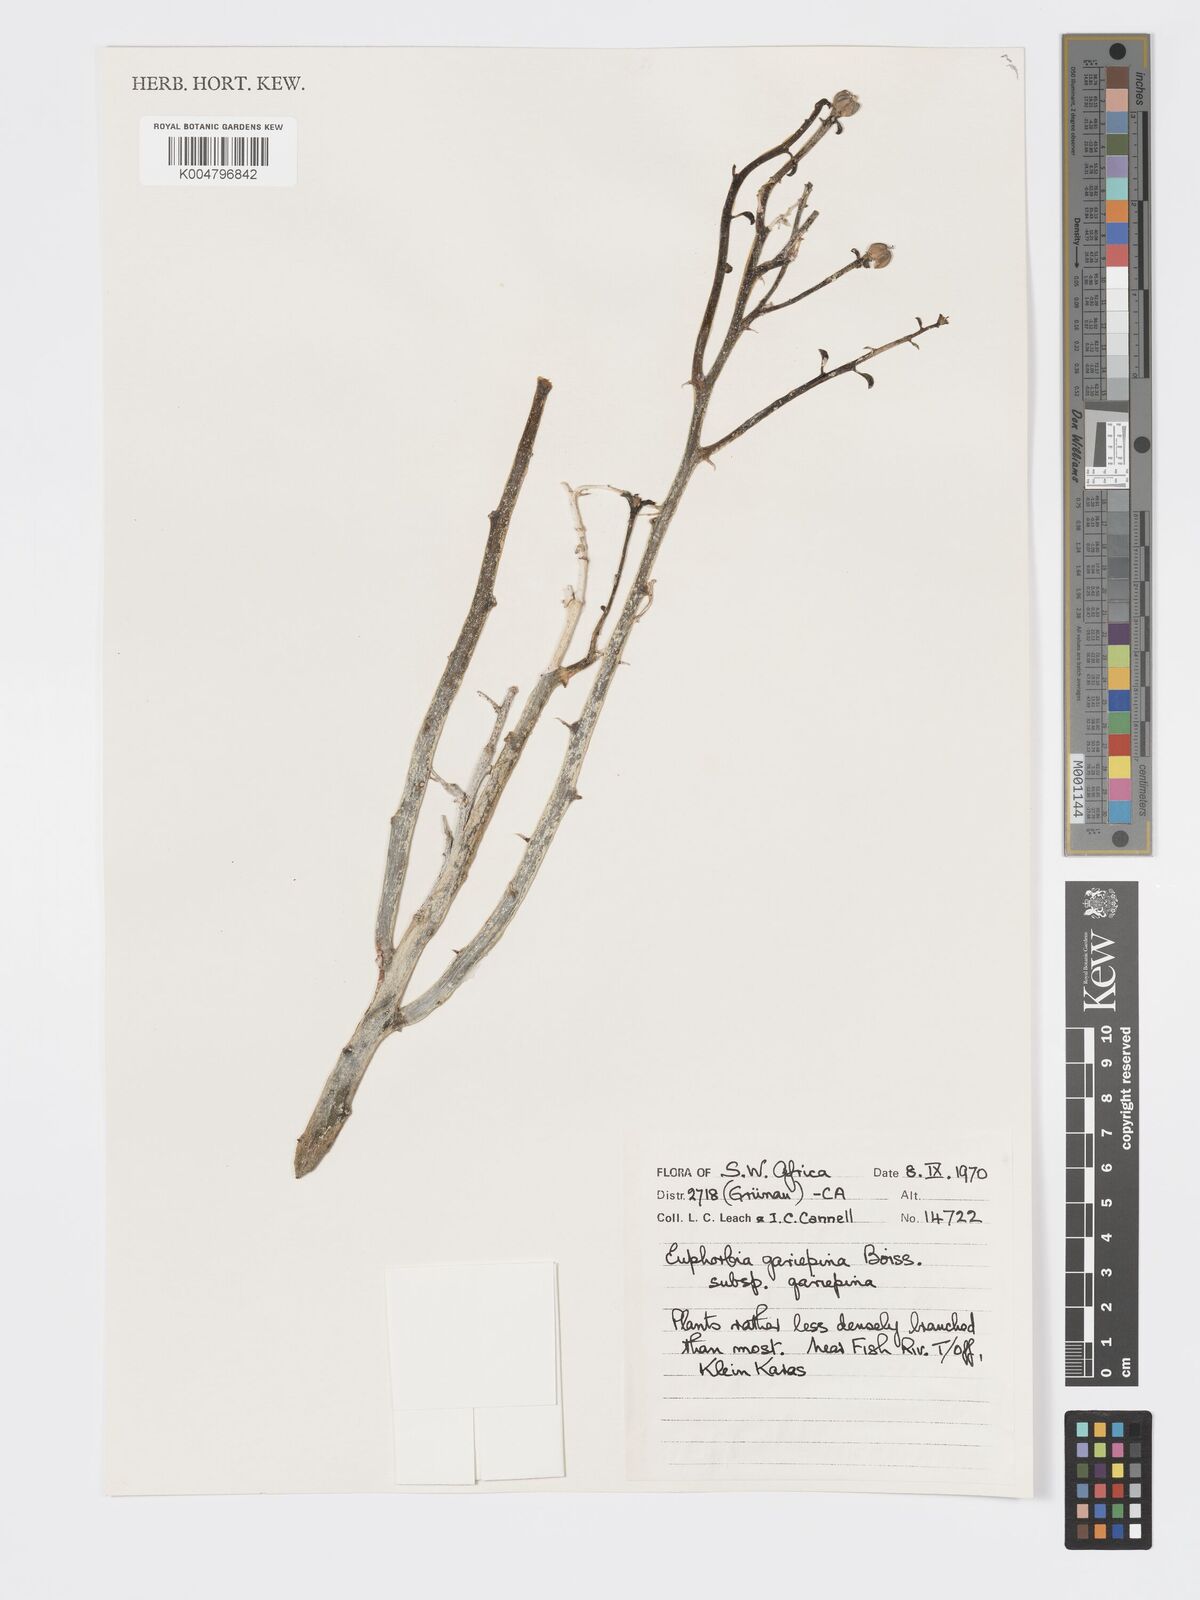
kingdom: Plantae
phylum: Tracheophyta
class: Magnoliopsida
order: Malpighiales
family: Euphorbiaceae
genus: Euphorbia
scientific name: Euphorbia gariepina
